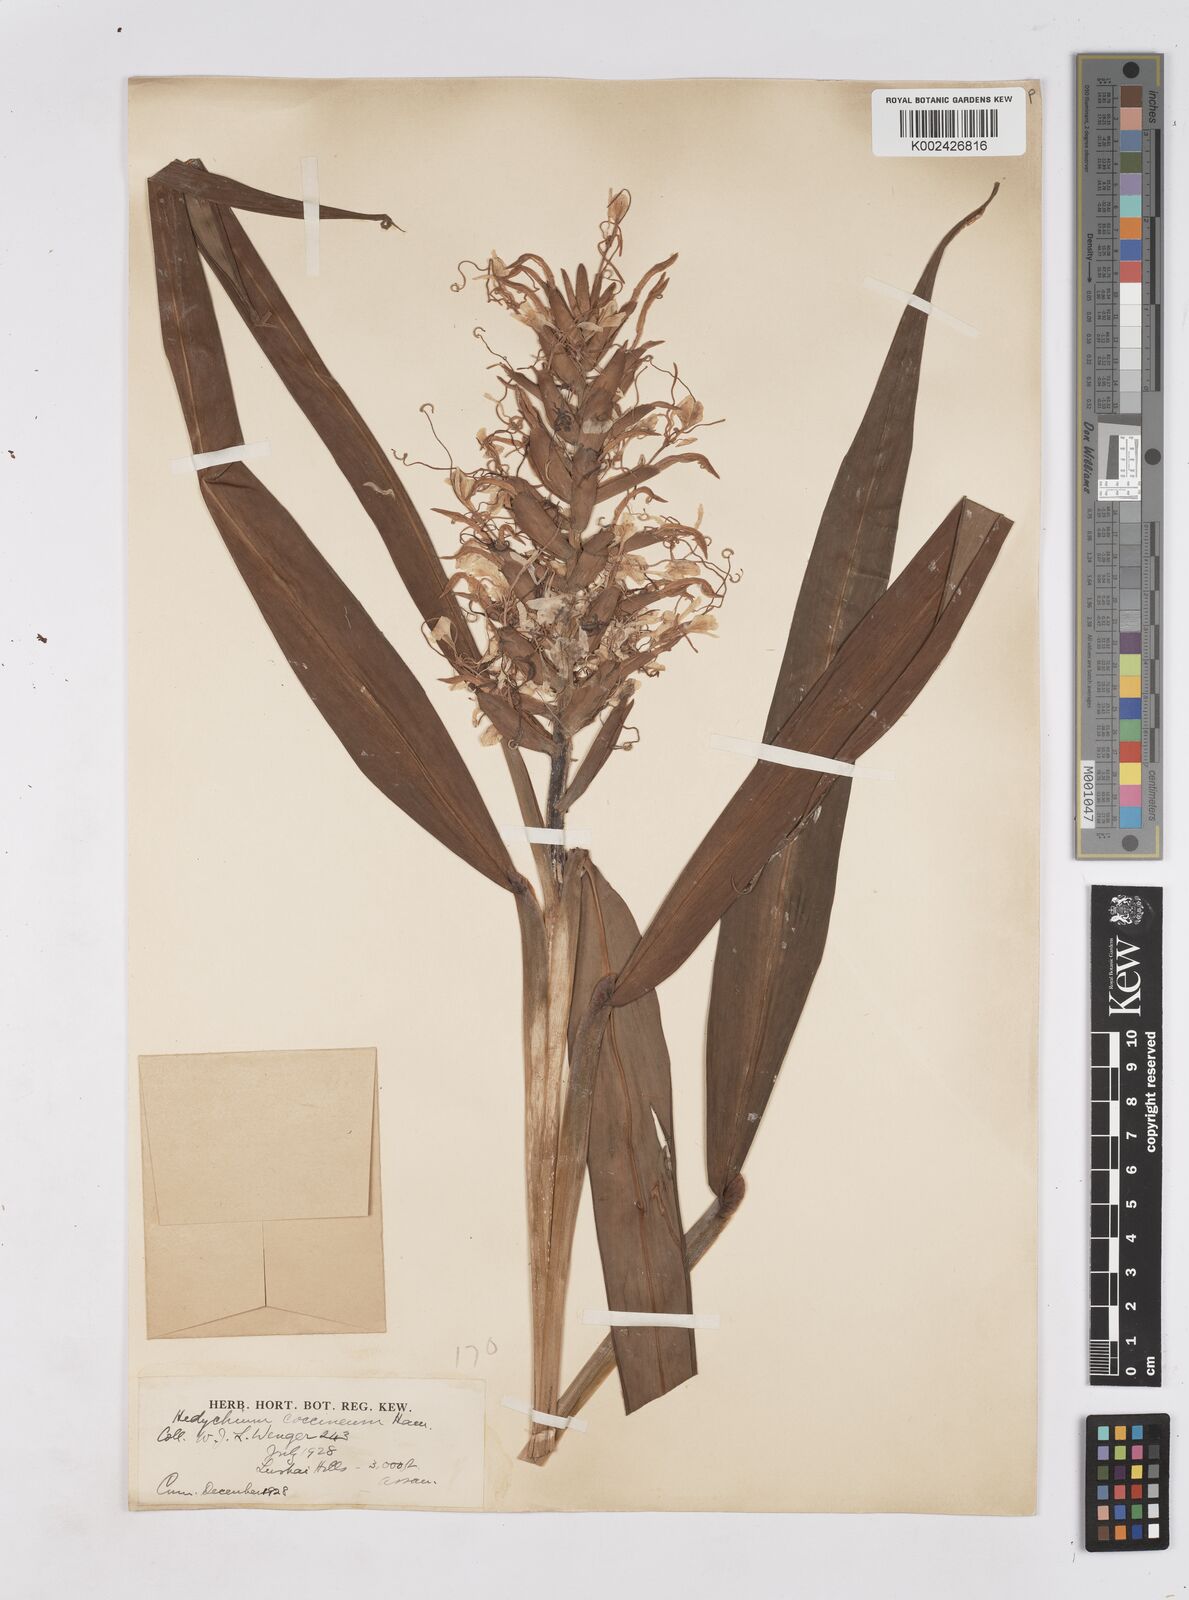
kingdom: Plantae
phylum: Tracheophyta
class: Liliopsida
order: Zingiberales
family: Zingiberaceae
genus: Hedychium
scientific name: Hedychium coccineum
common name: Red ginger-lily
